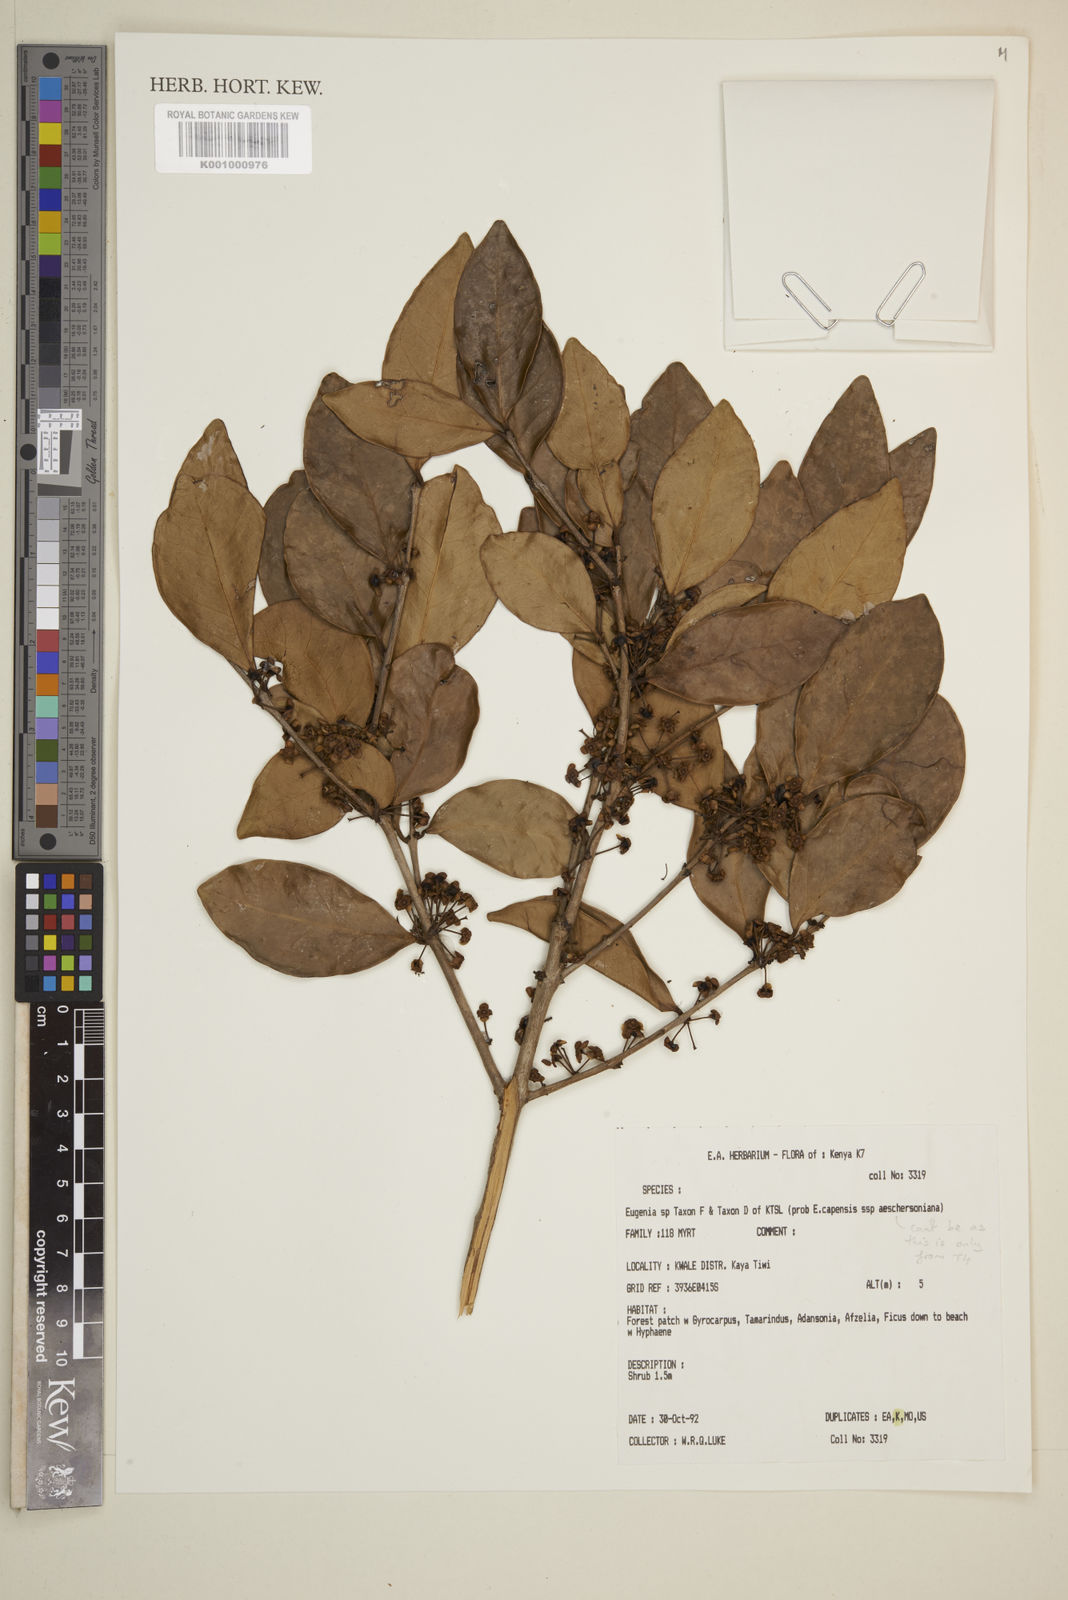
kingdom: Plantae
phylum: Tracheophyta
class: Magnoliopsida
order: Myrtales
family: Myrtaceae
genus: Eugenia
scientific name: Eugenia capensis
